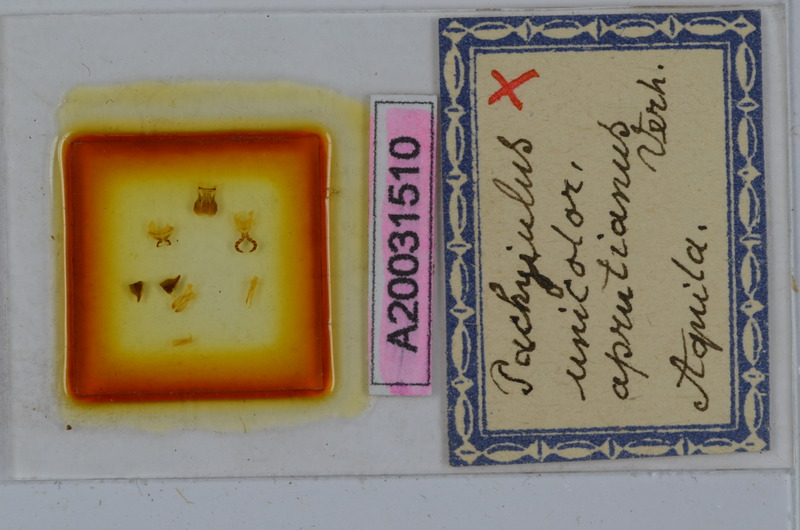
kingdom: Animalia
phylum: Arthropoda
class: Diplopoda
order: Julida
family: Julidae
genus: Pachyiulus
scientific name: Pachyiulus unicolor
